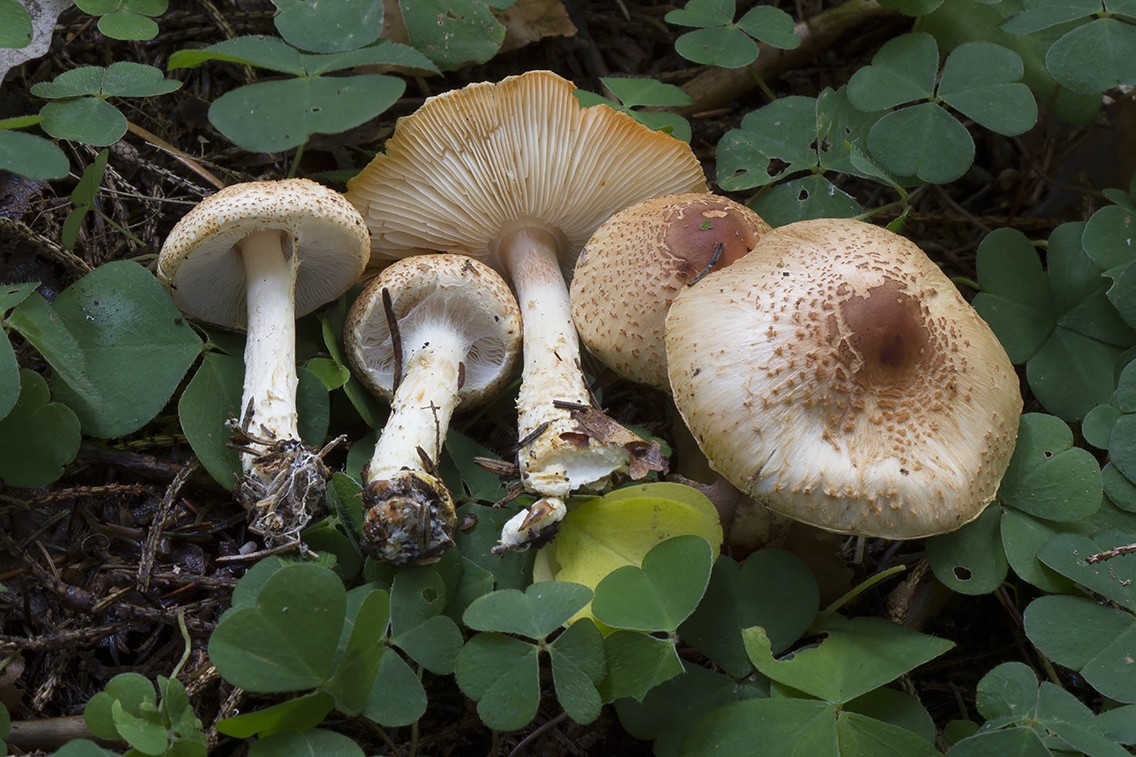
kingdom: Fungi
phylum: Basidiomycota
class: Agaricomycetes
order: Agaricales
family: Agaricaceae
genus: Lepiota
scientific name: Lepiota ochraceofulva
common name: sødtduftende parasolhat
